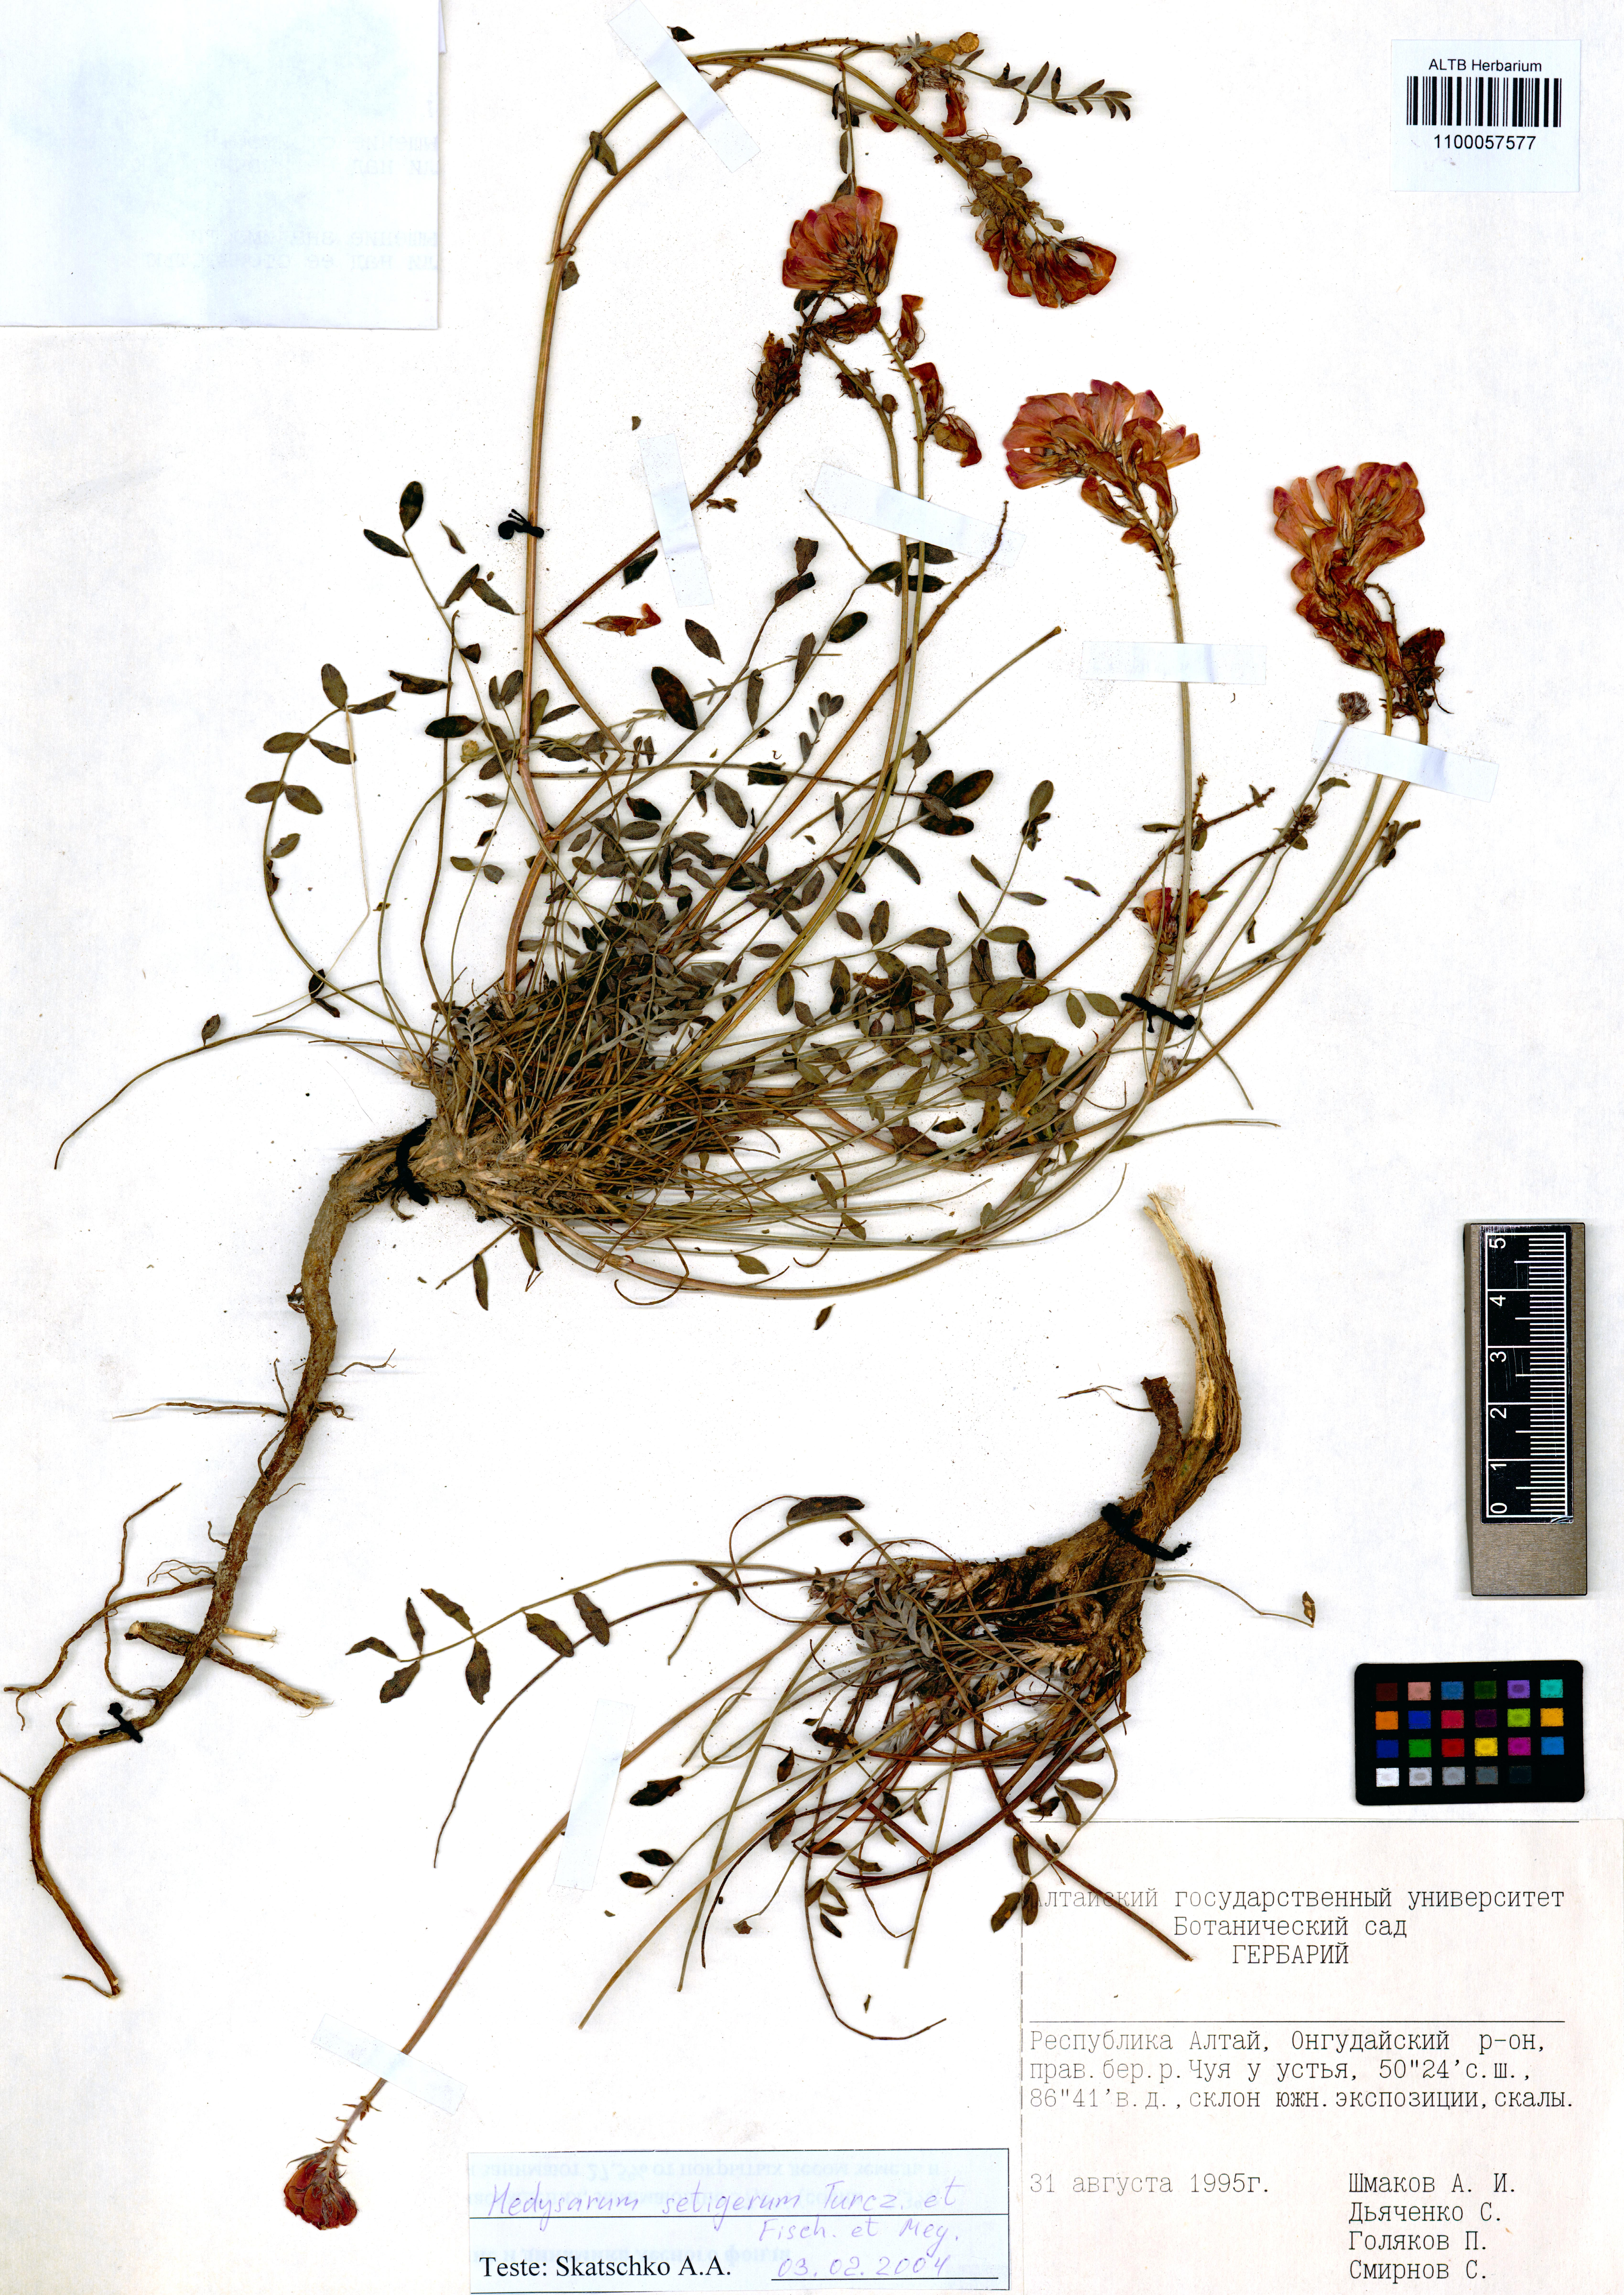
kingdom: Plantae
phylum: Tracheophyta
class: Magnoliopsida
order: Fabales
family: Fabaceae
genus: Hedysarum
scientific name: Hedysarum setigerum
